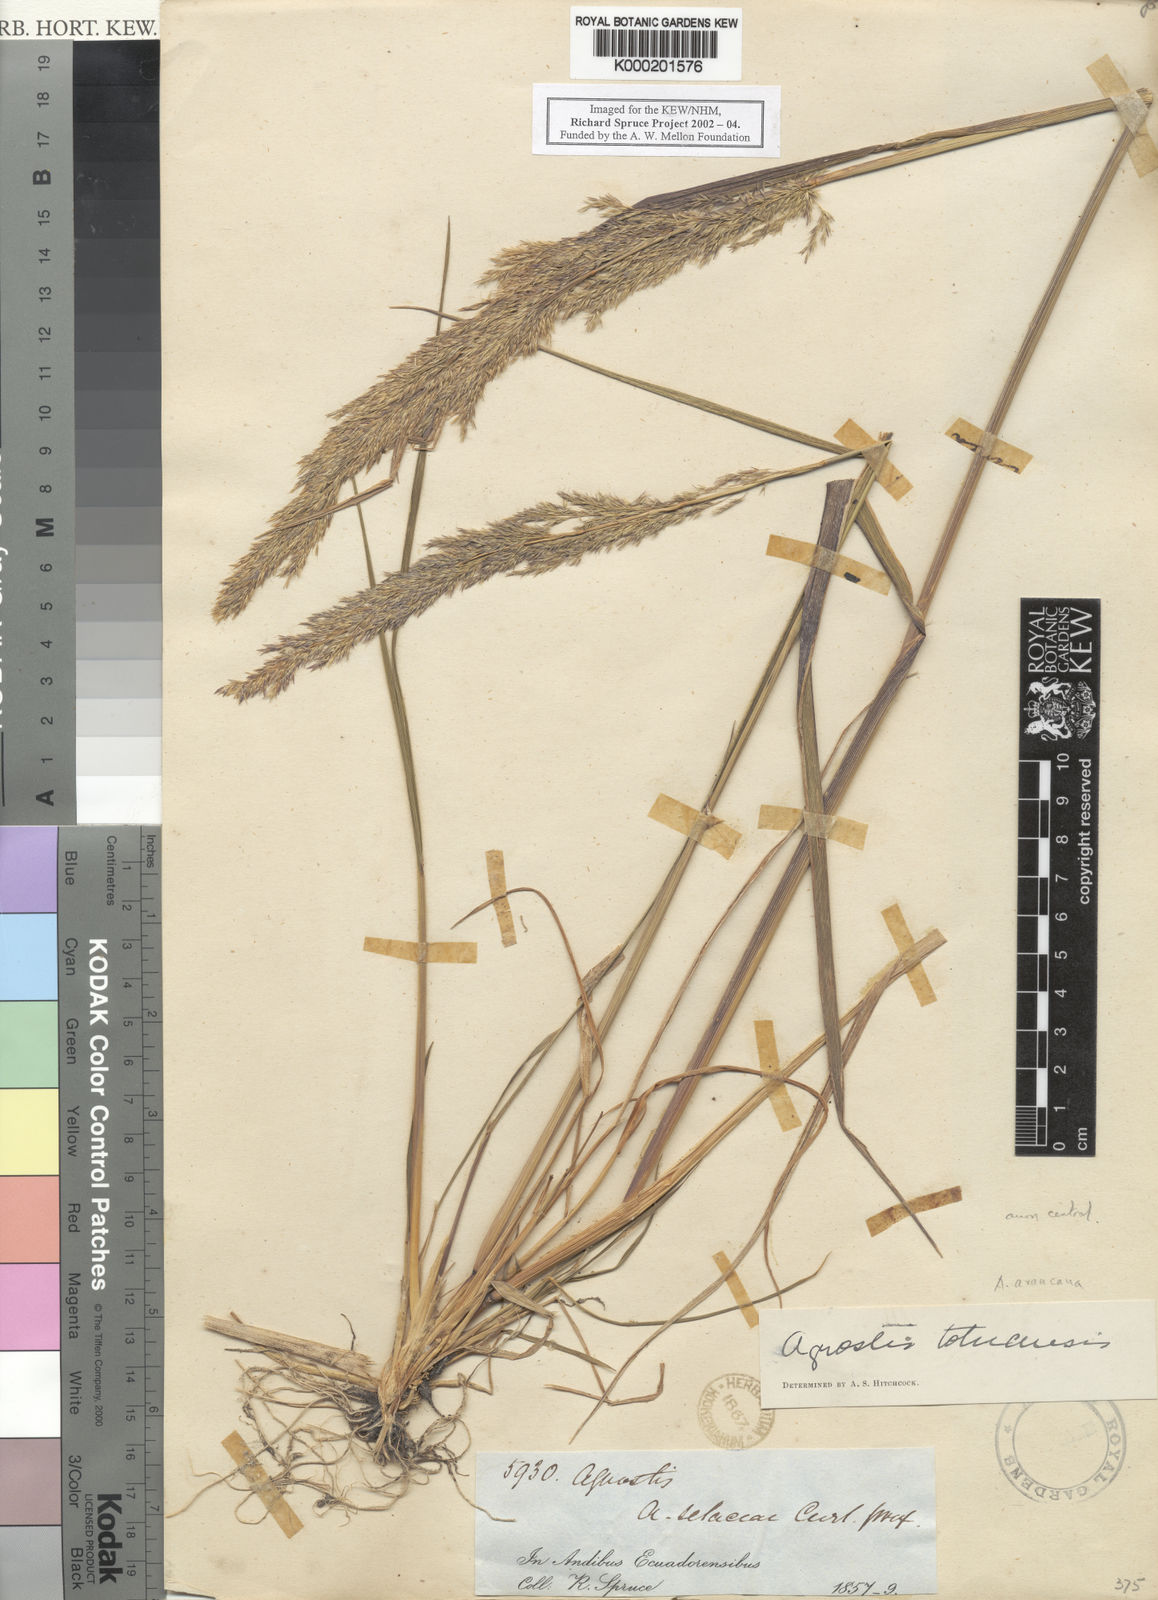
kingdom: Plantae
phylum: Tracheophyta
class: Liliopsida
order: Poales
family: Poaceae
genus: Agrostis
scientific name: Agrostis tolucensis
